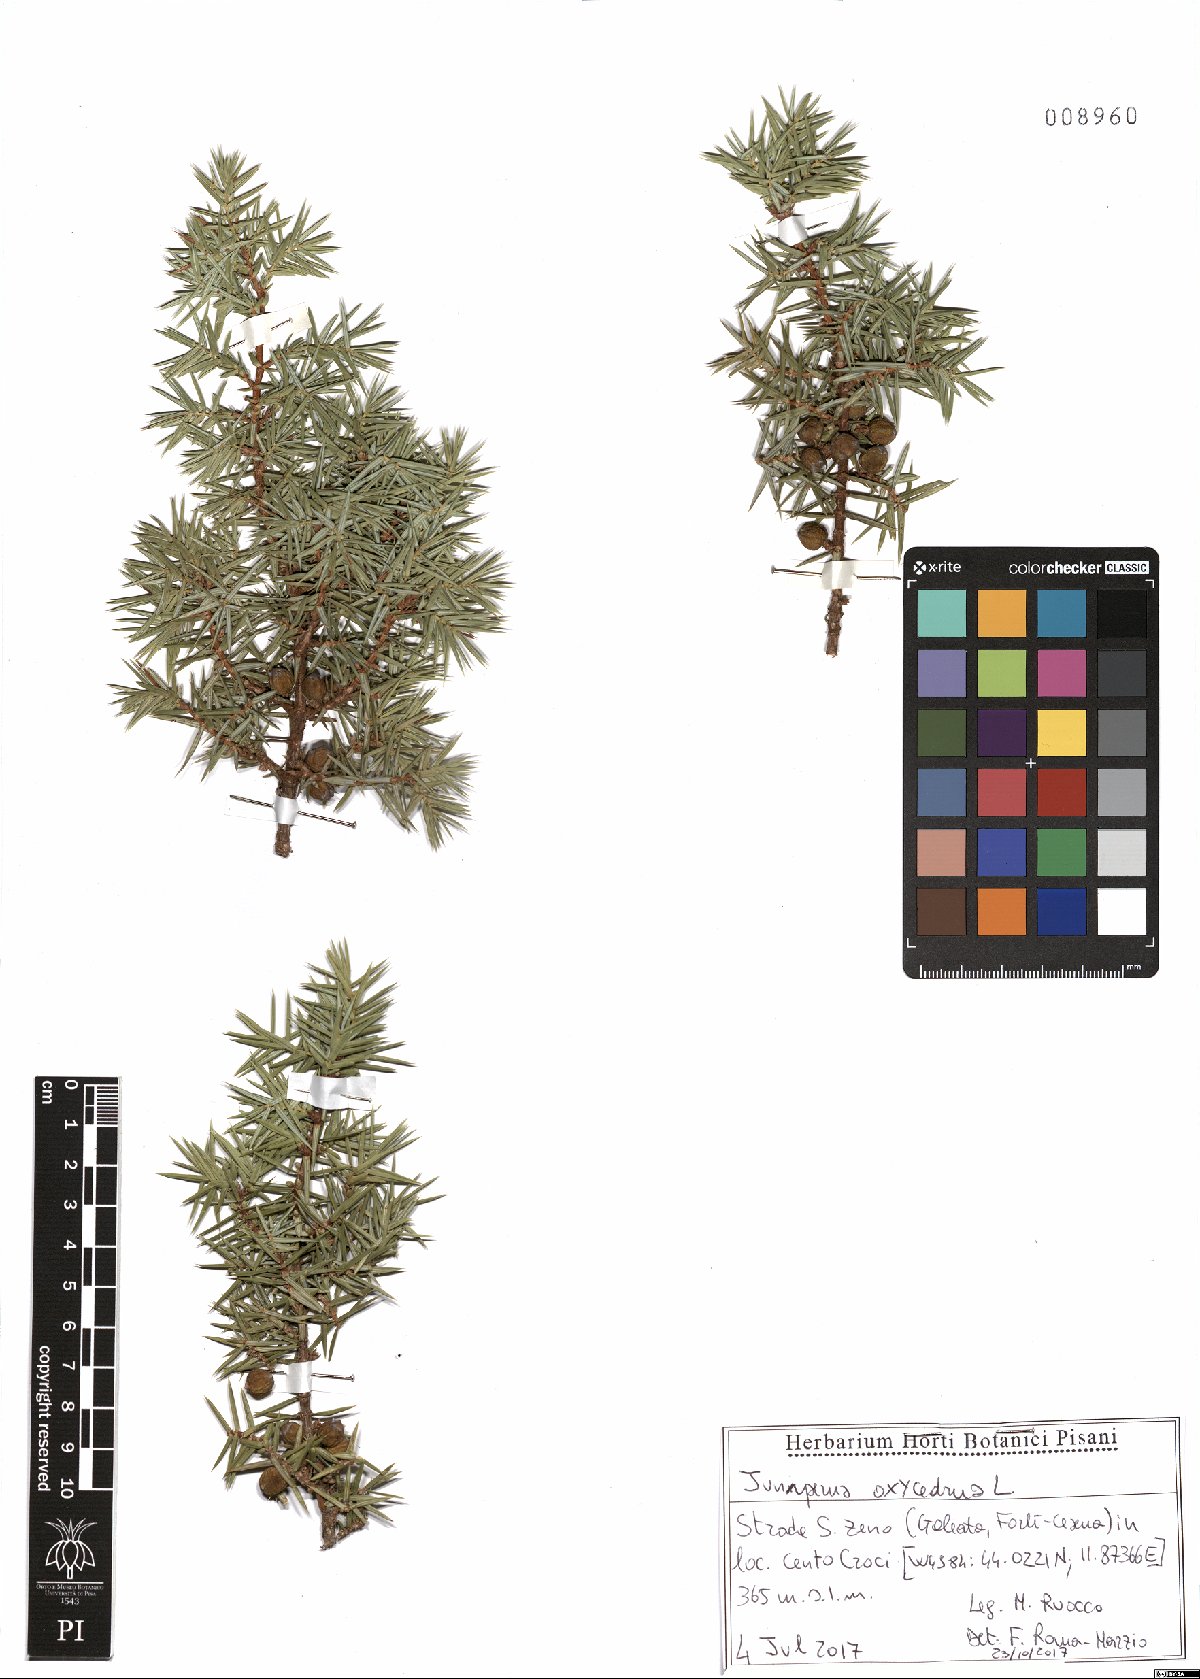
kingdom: Plantae
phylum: Tracheophyta
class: Pinopsida
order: Pinales
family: Cupressaceae
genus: Juniperus
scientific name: Juniperus oxycedrus
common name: Prickly juniper
